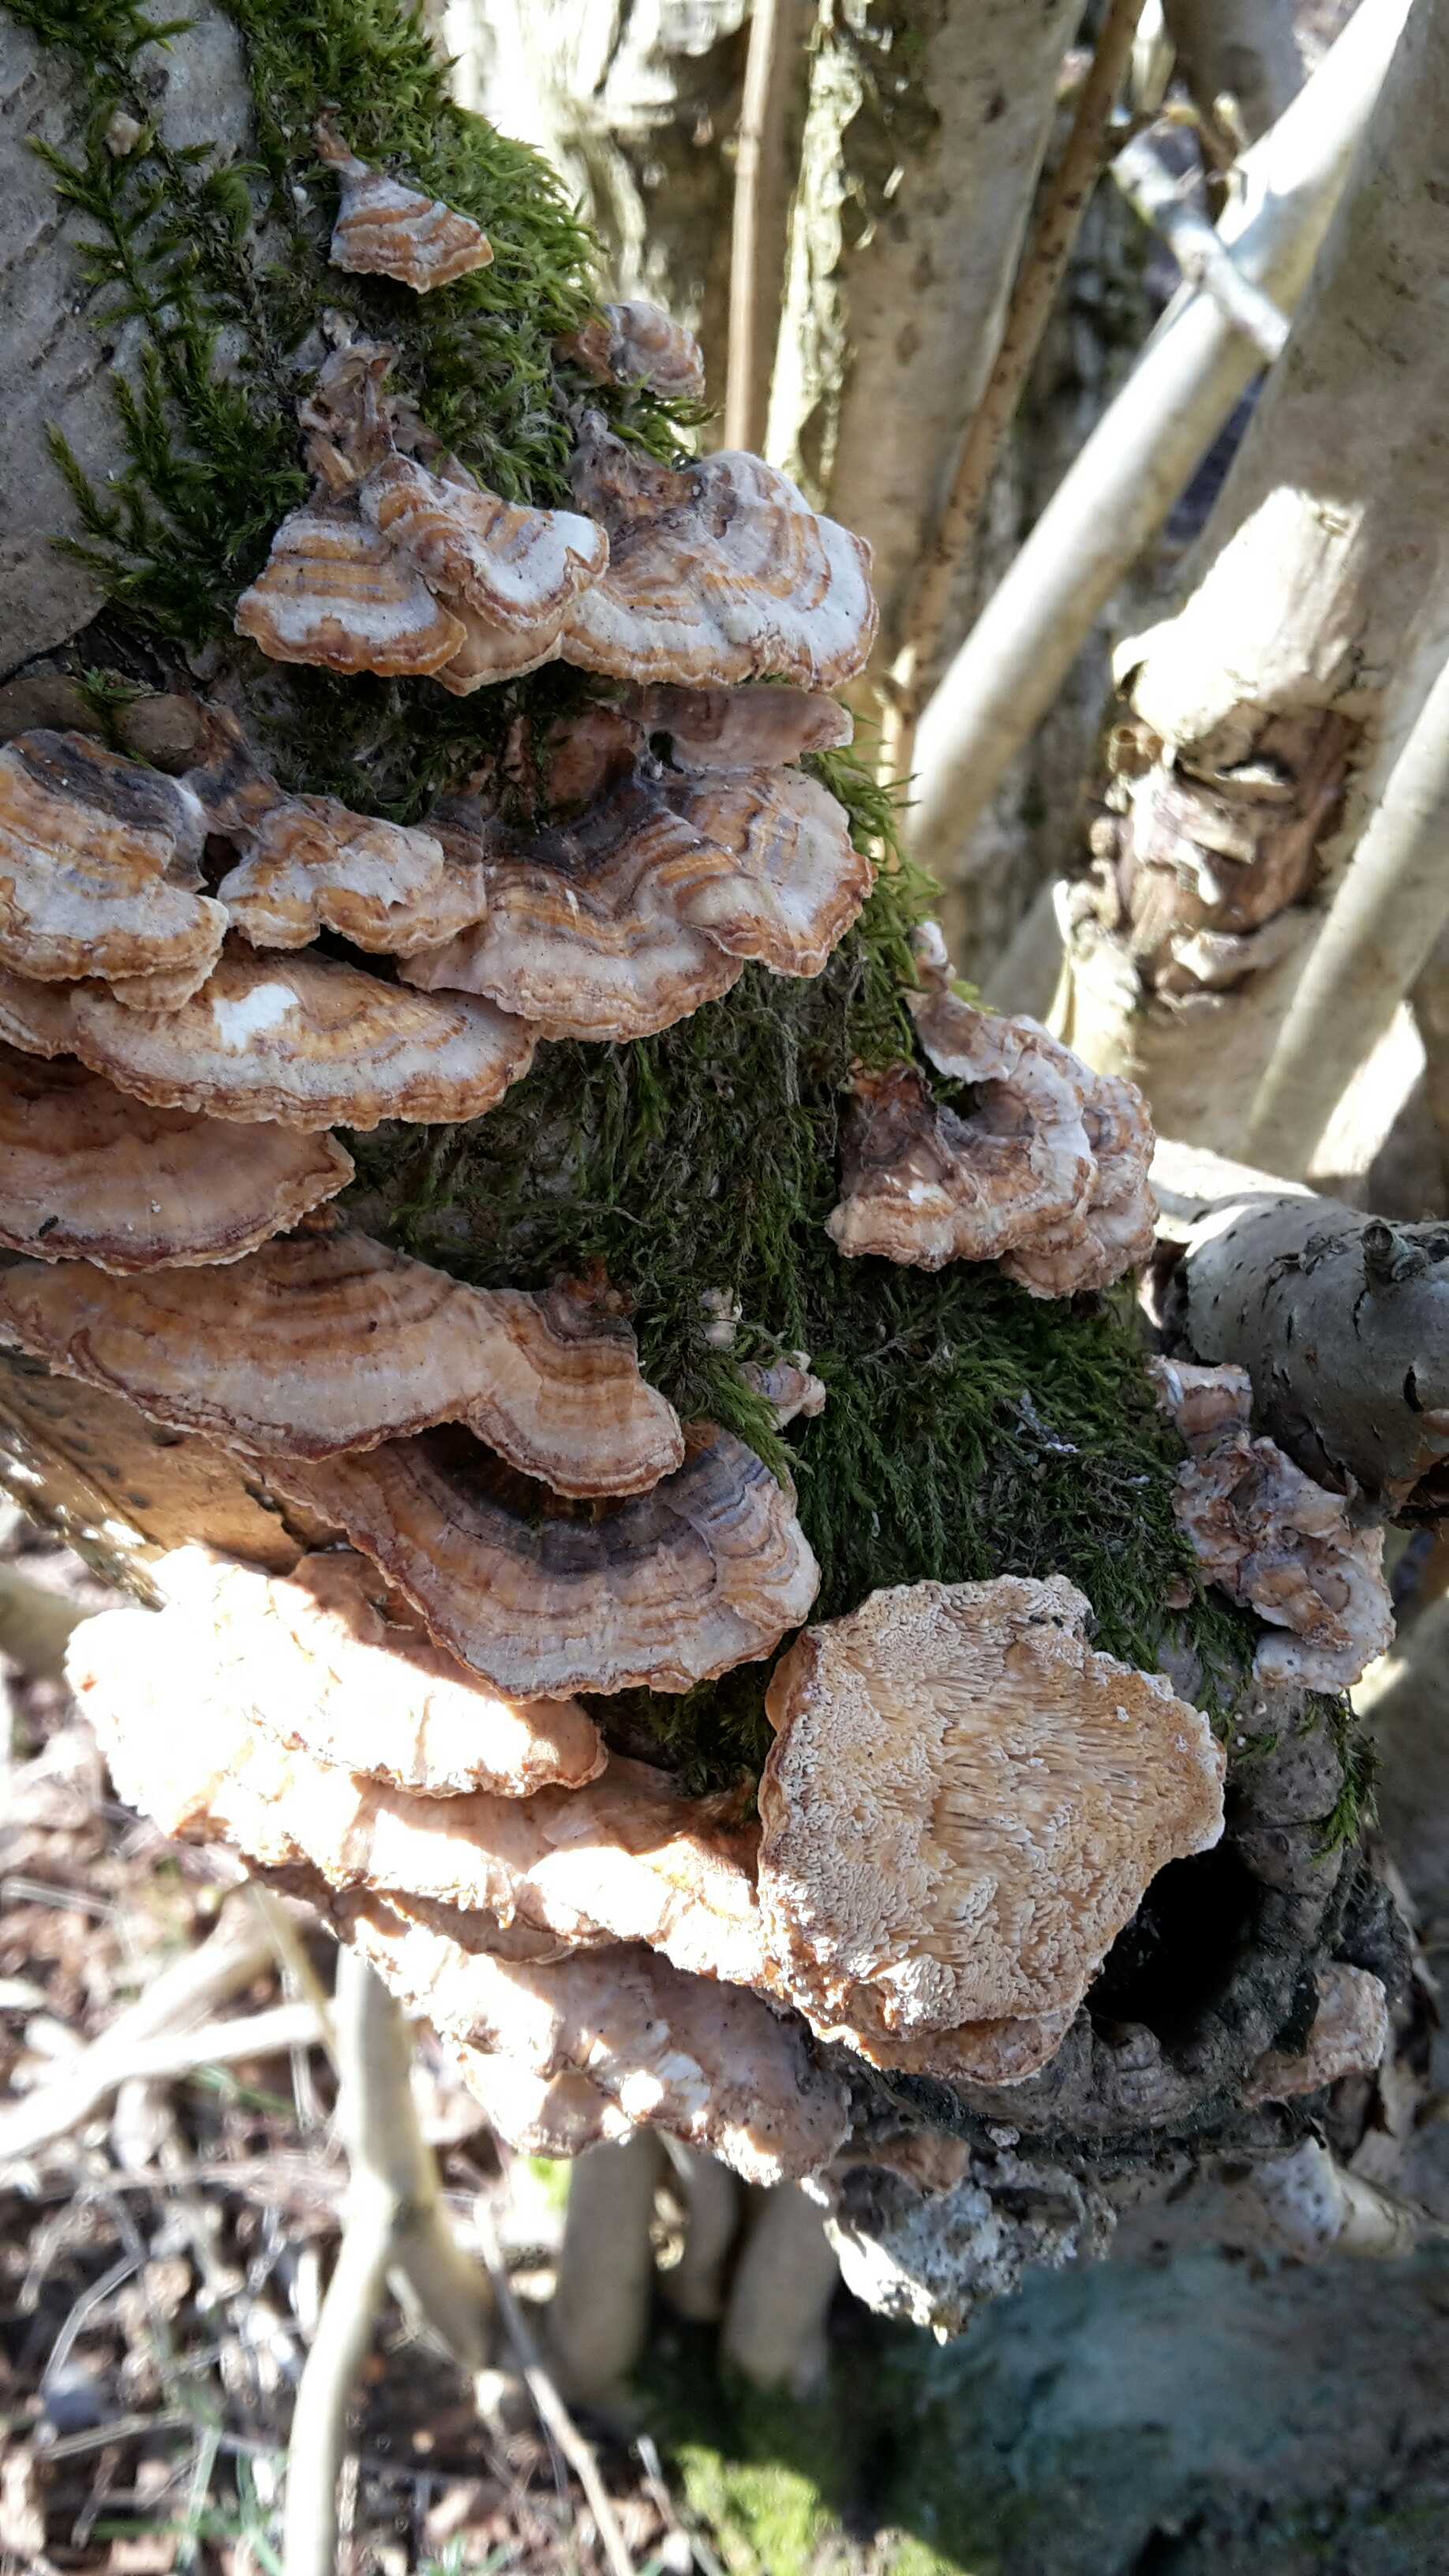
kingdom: Fungi
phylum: Basidiomycota
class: Agaricomycetes
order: Polyporales
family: Polyporaceae
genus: Trametes
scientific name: Trametes ochracea
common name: bæltet læderporesvamp
